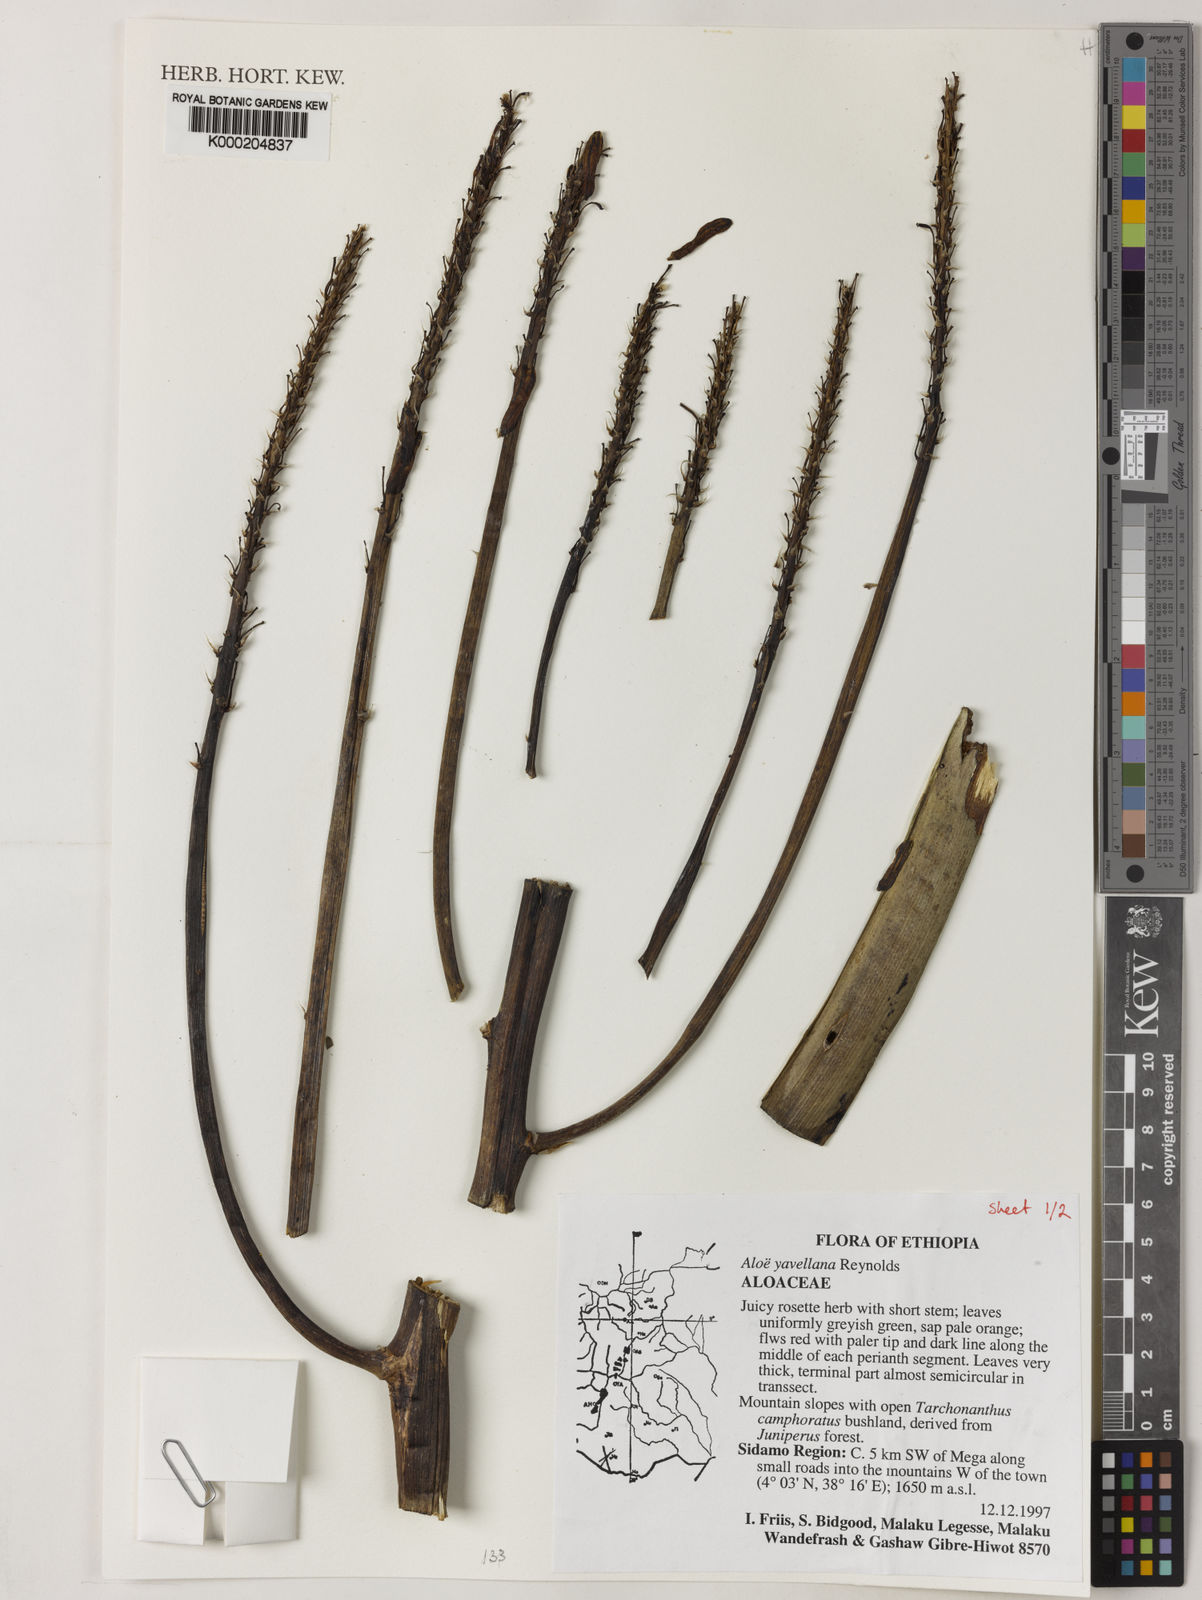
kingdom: Plantae
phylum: Tracheophyta
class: Liliopsida
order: Asparagales
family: Asphodelaceae
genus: Aloe
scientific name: Aloe yavellana
